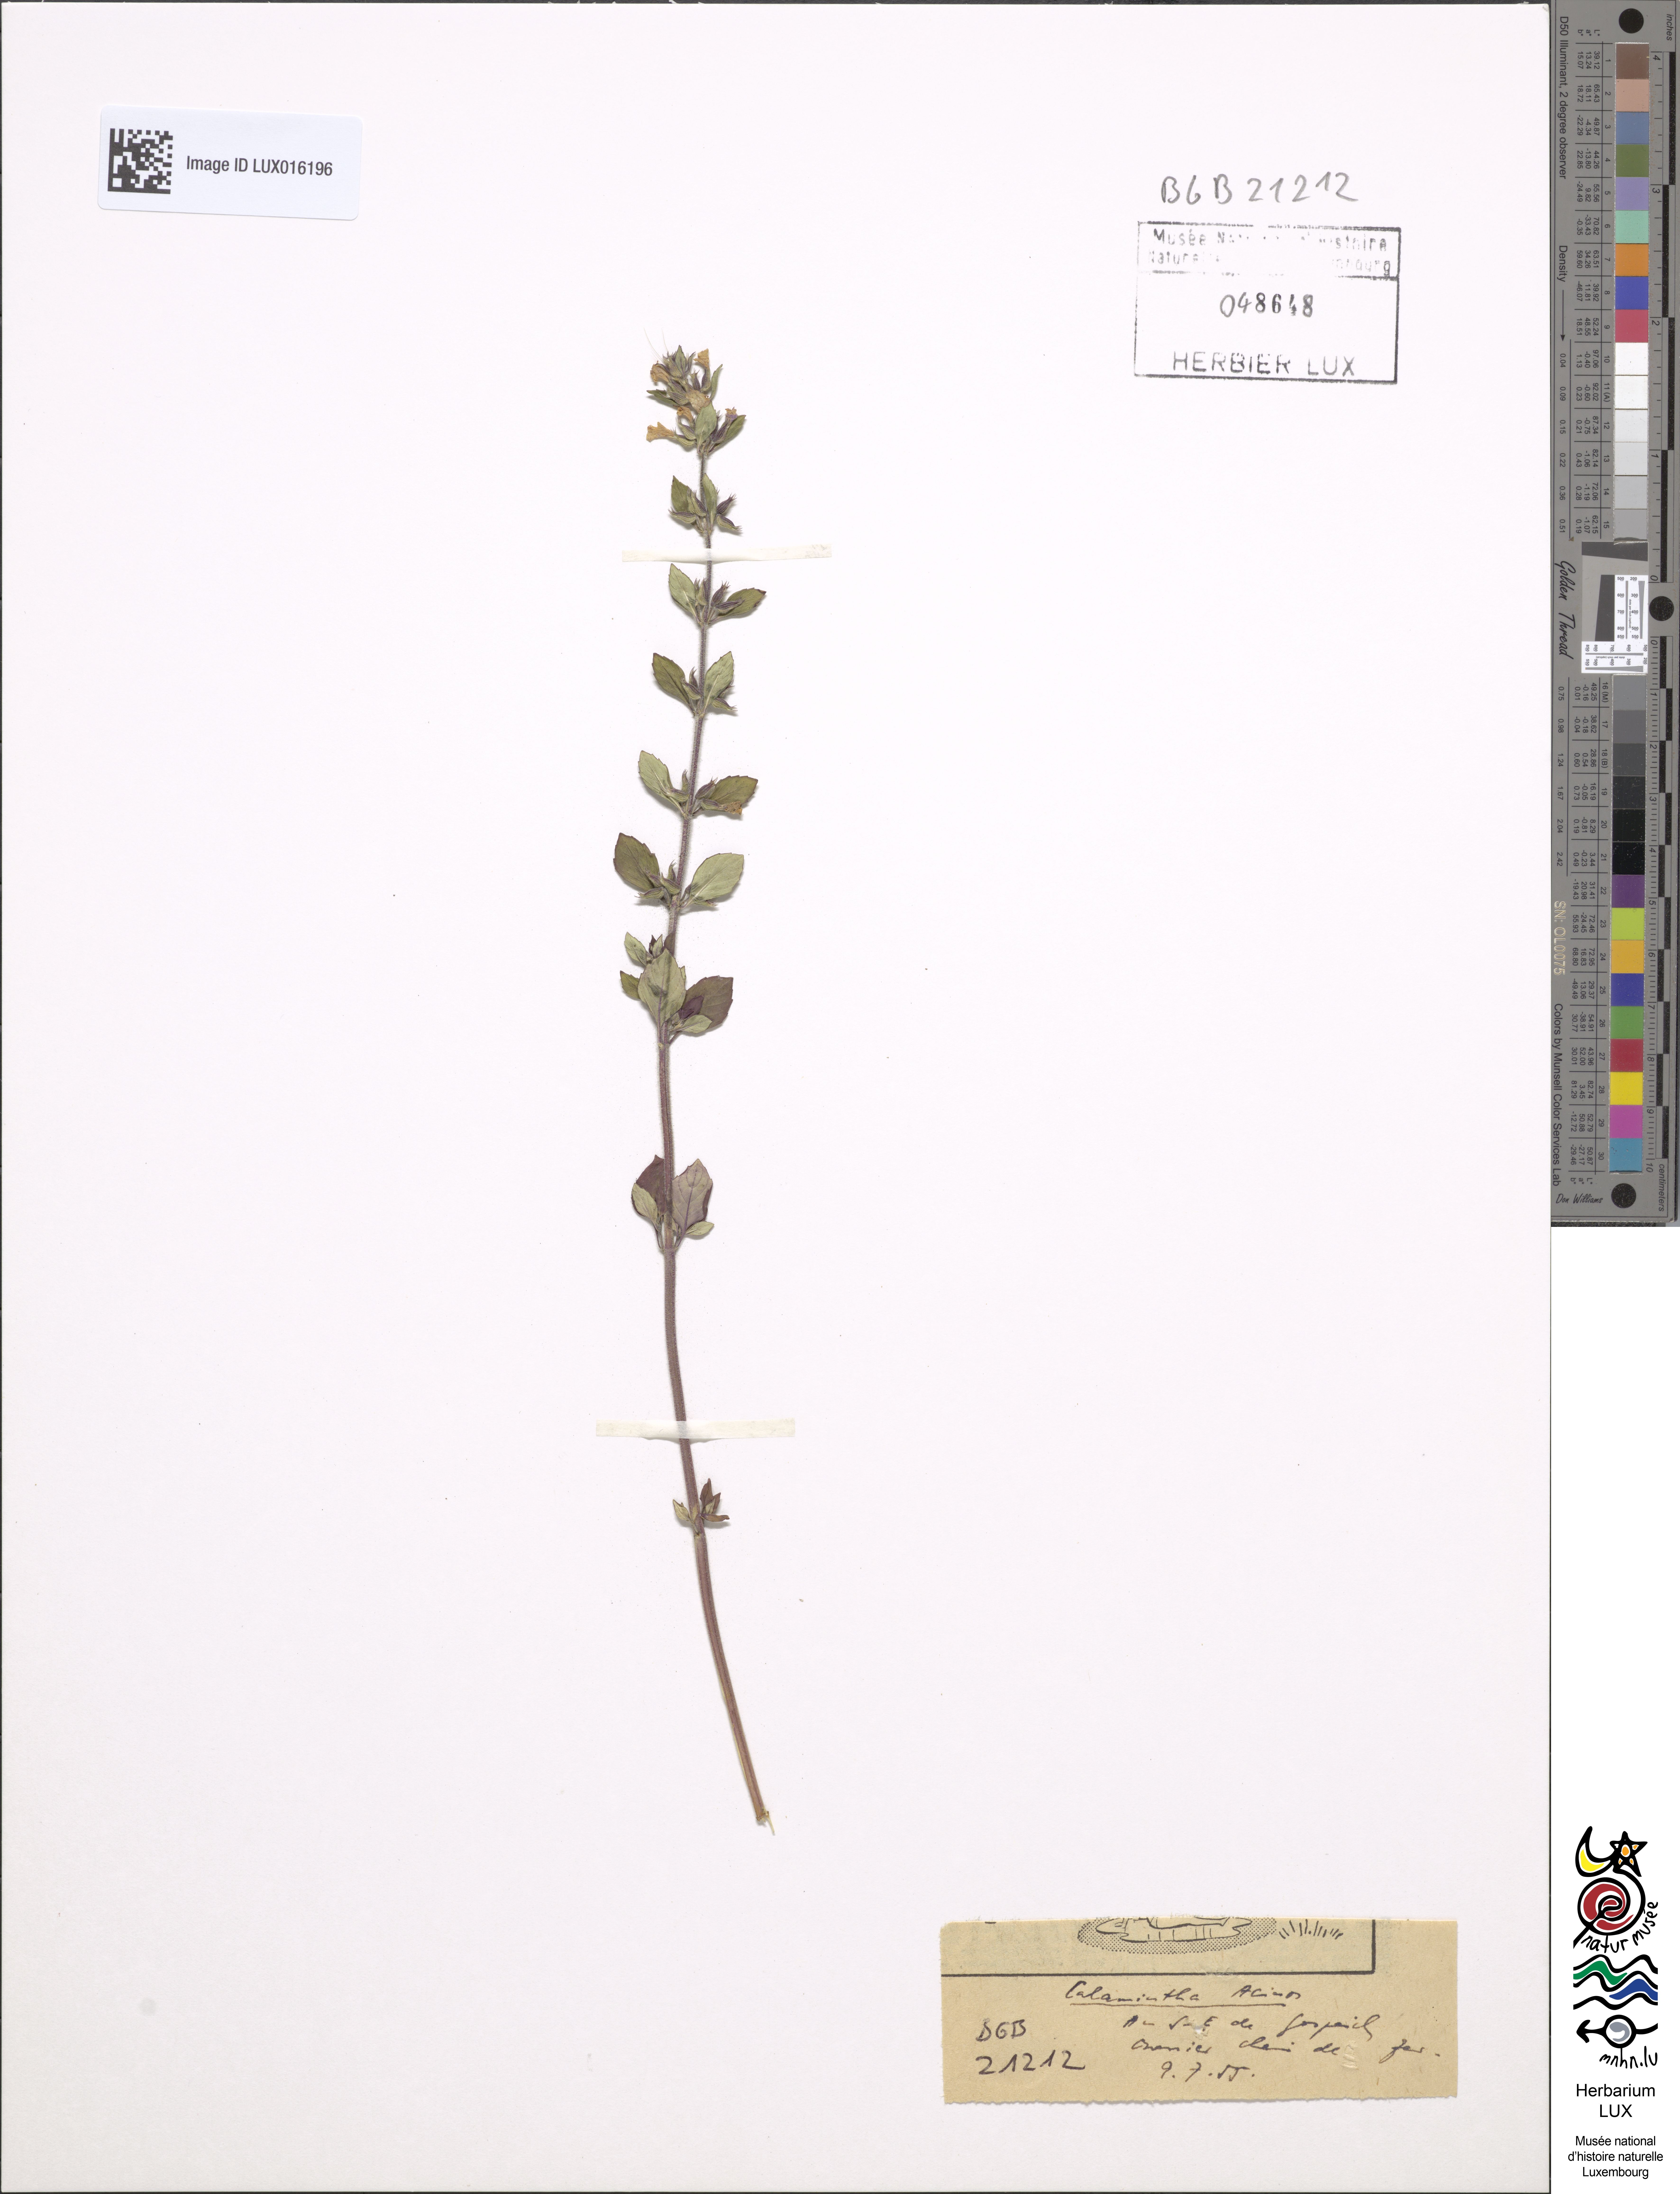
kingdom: Plantae
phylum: Tracheophyta
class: Magnoliopsida
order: Lamiales
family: Lamiaceae
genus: Clinopodium
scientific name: Clinopodium acinos
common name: Basil thyme
